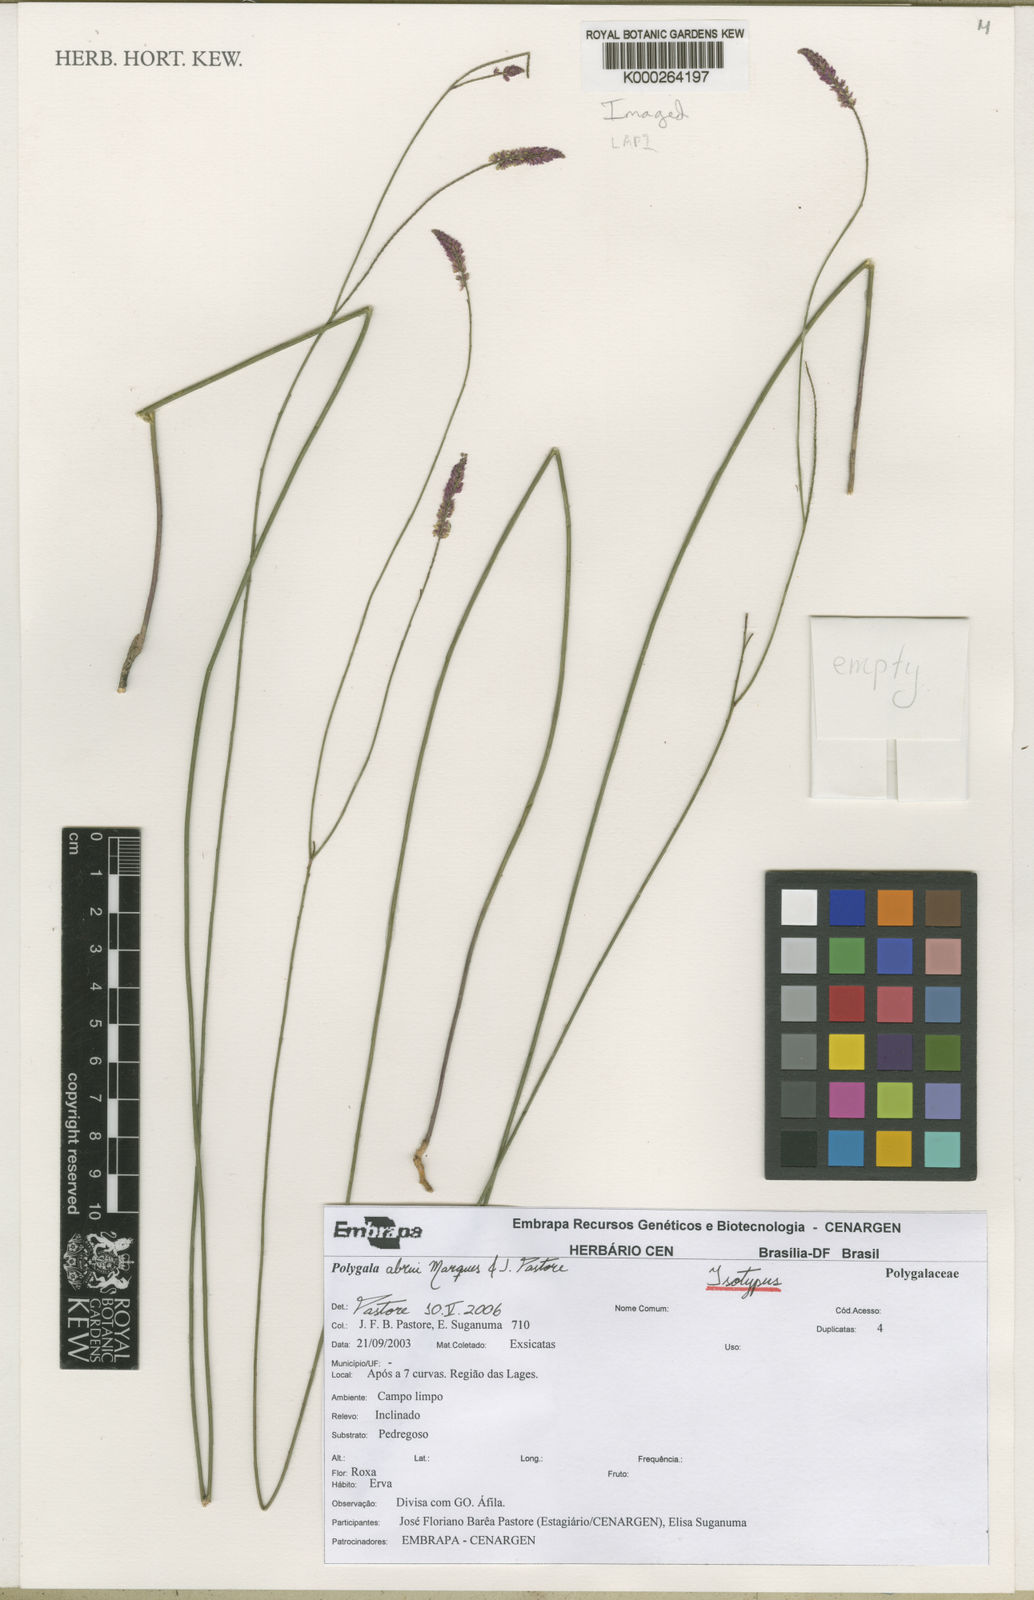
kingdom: Plantae
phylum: Tracheophyta
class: Magnoliopsida
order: Fabales
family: Polygalaceae
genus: Polygala
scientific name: Polygala abreui
